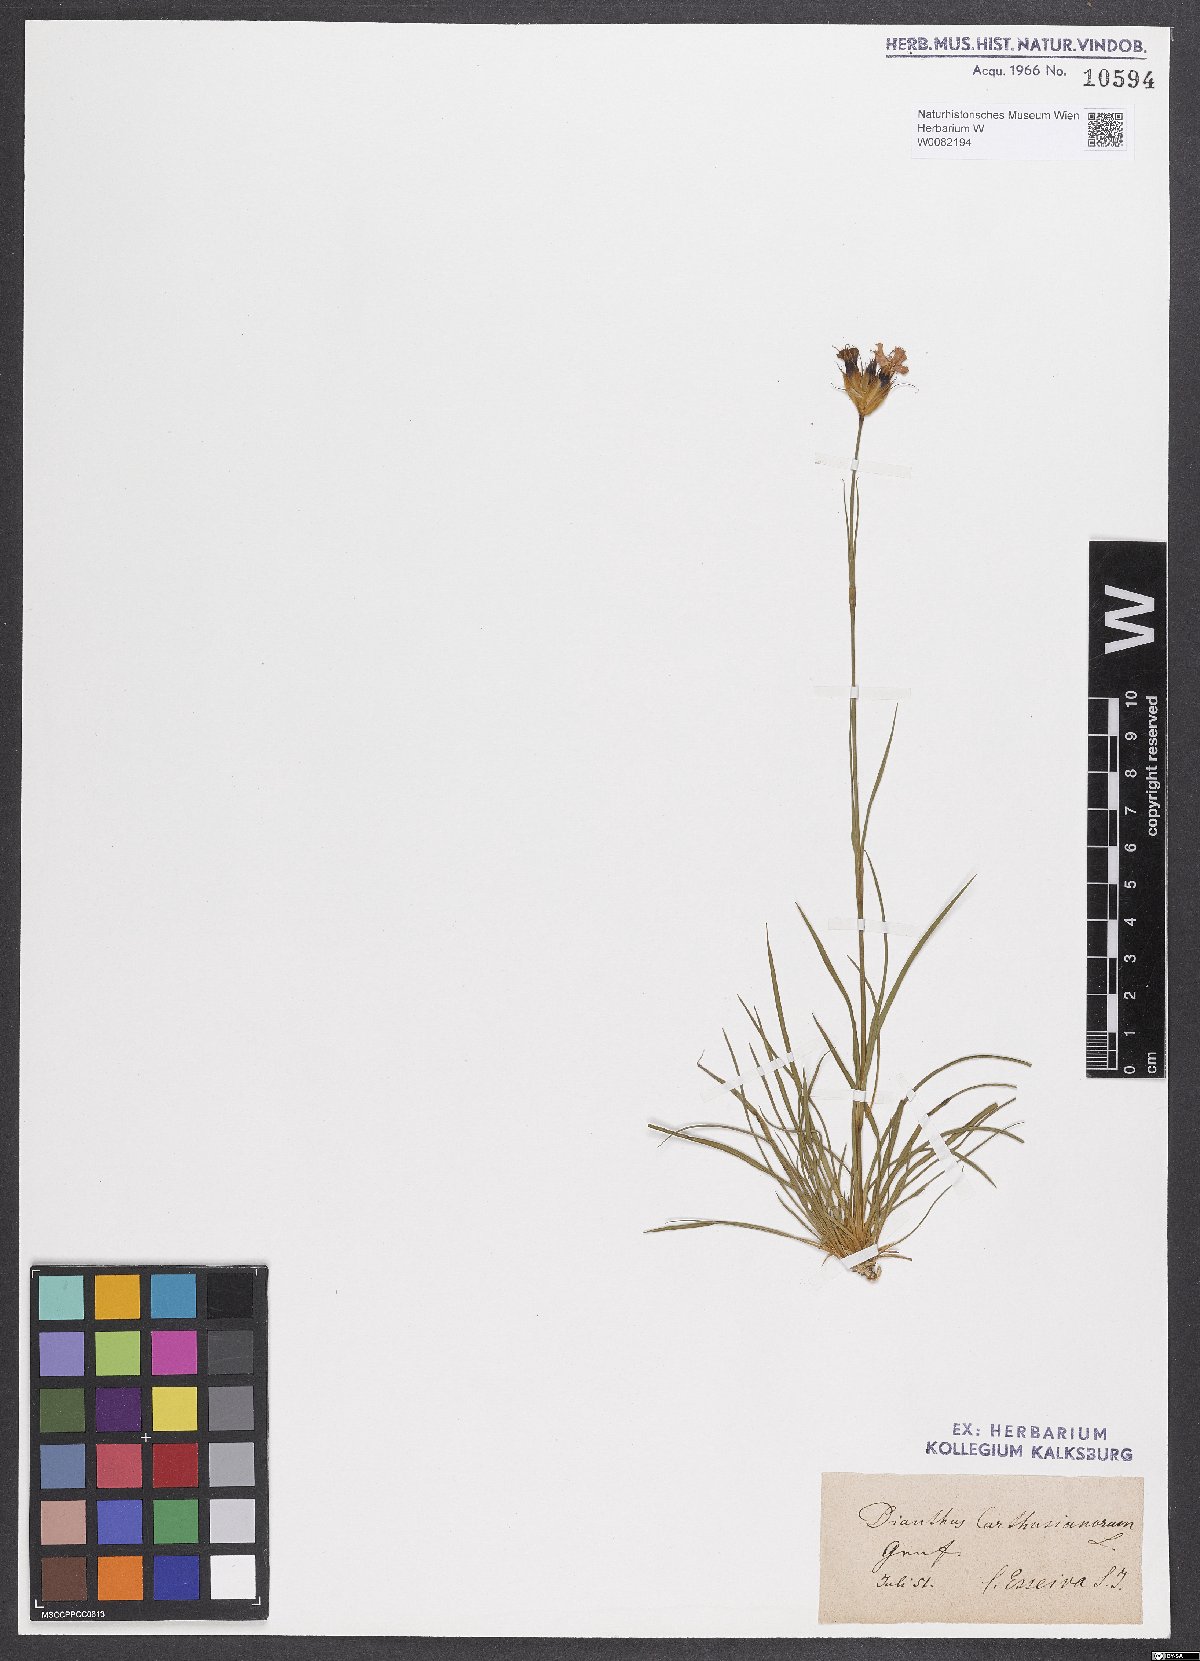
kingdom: Plantae
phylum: Tracheophyta
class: Magnoliopsida
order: Caryophyllales
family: Caryophyllaceae
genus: Dianthus
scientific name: Dianthus carthusianorum
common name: Carthusian pink
